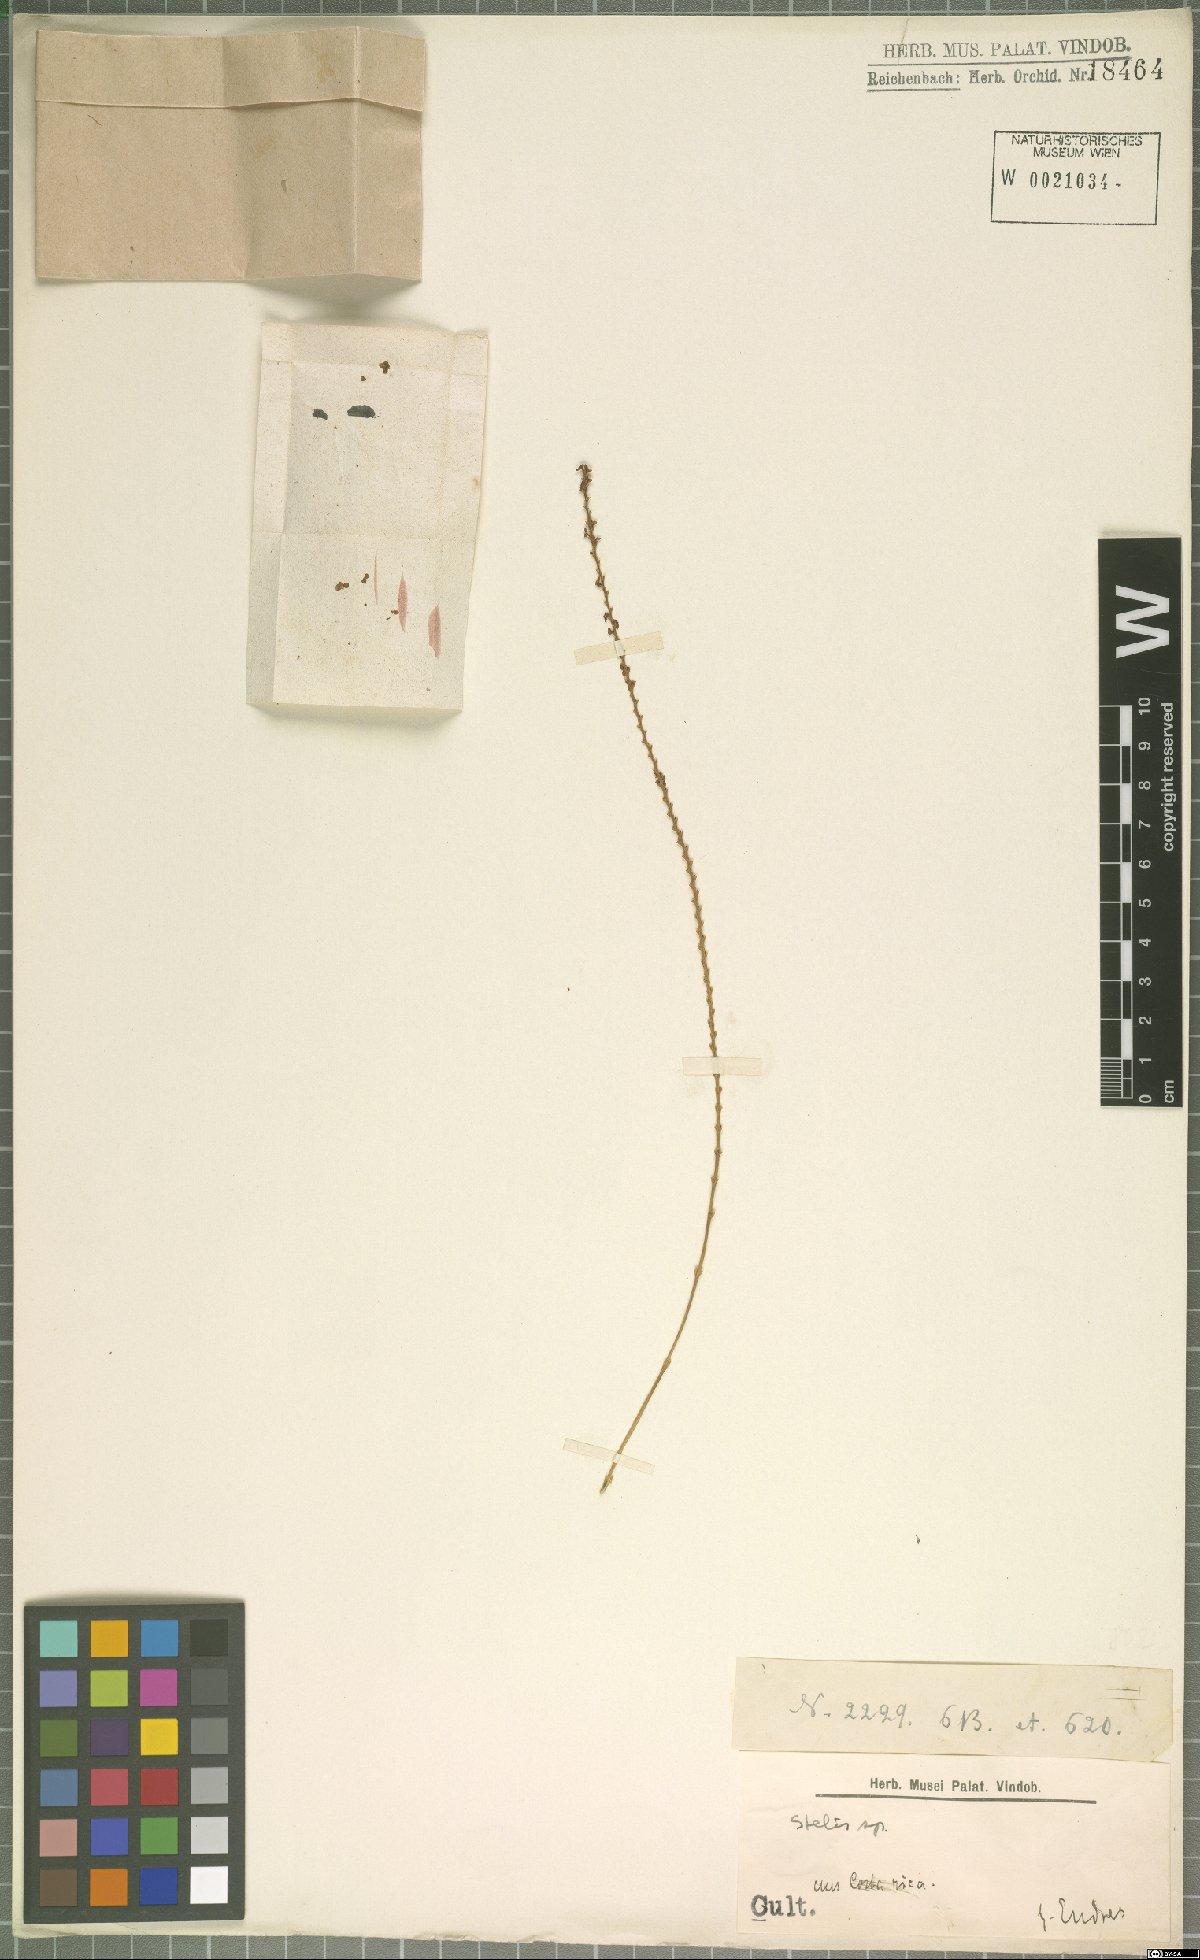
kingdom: Plantae
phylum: Tracheophyta
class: Liliopsida
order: Asparagales
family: Orchidaceae
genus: Stelis
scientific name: Stelis
